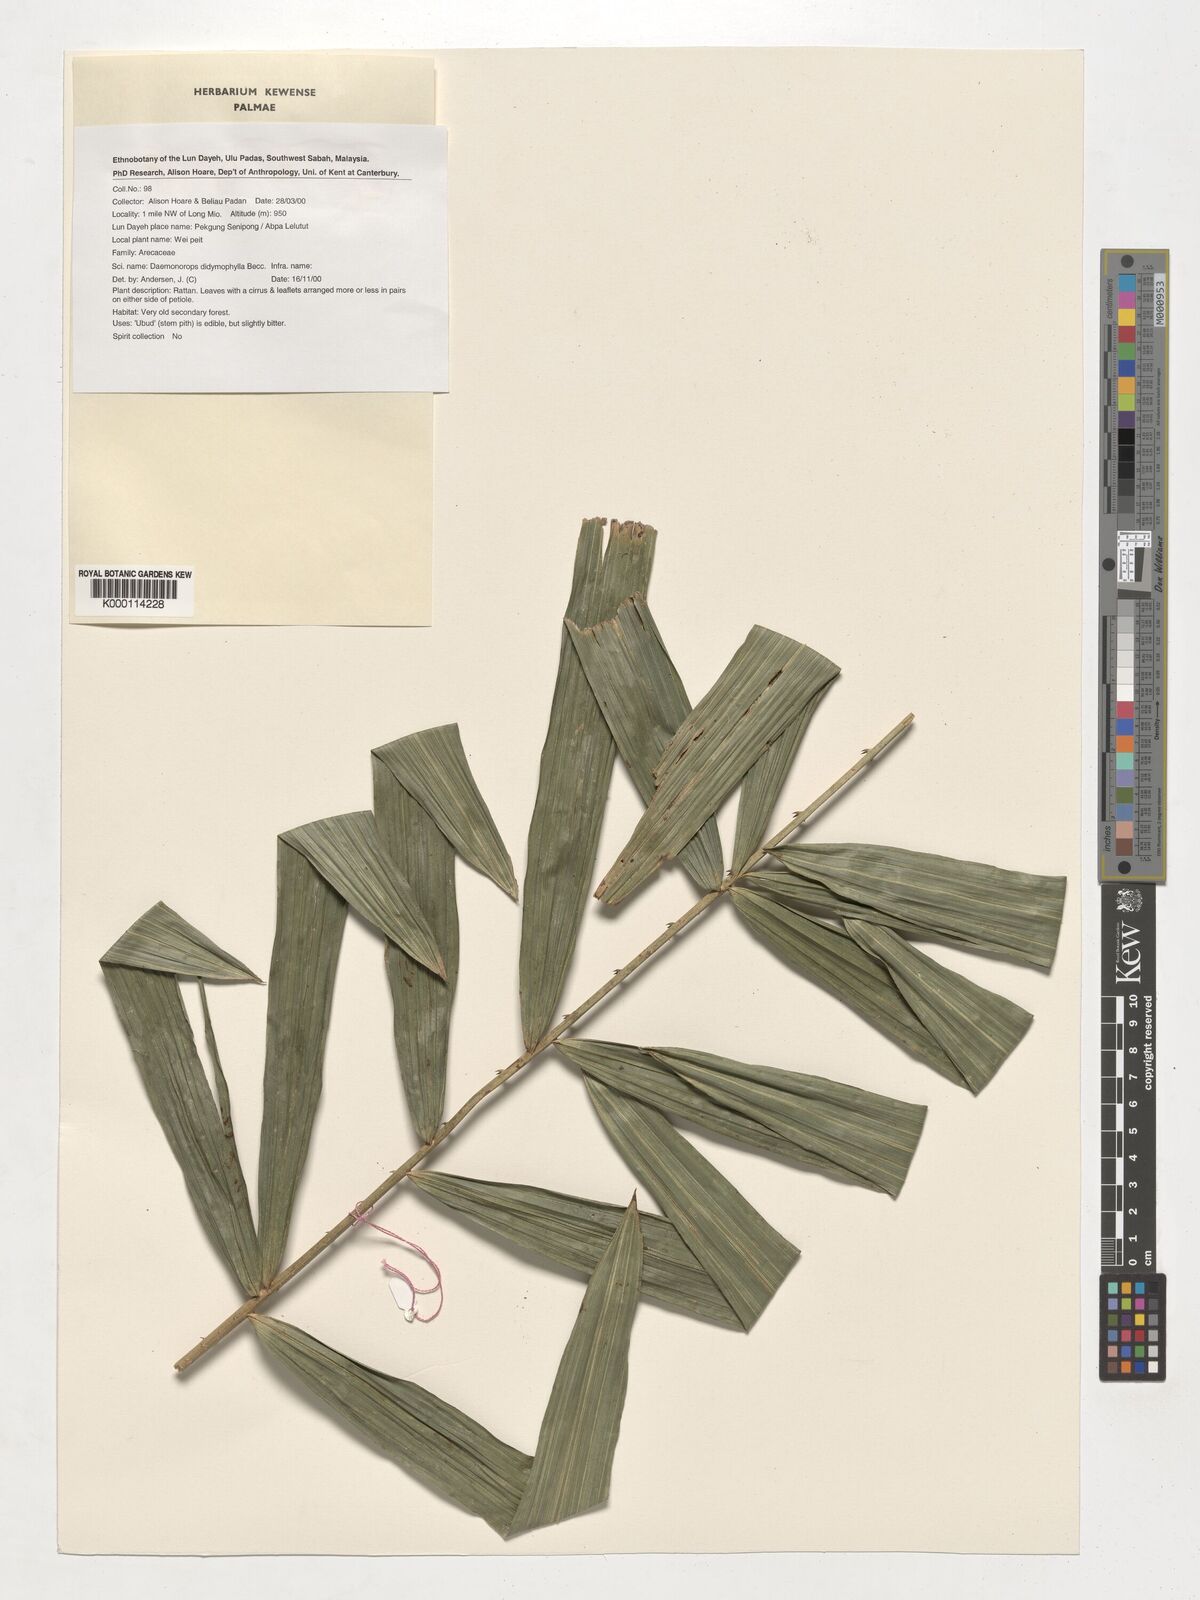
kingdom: Plantae
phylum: Tracheophyta
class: Liliopsida
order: Arecales
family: Arecaceae
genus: Calamus
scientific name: Calamus gracilipes
